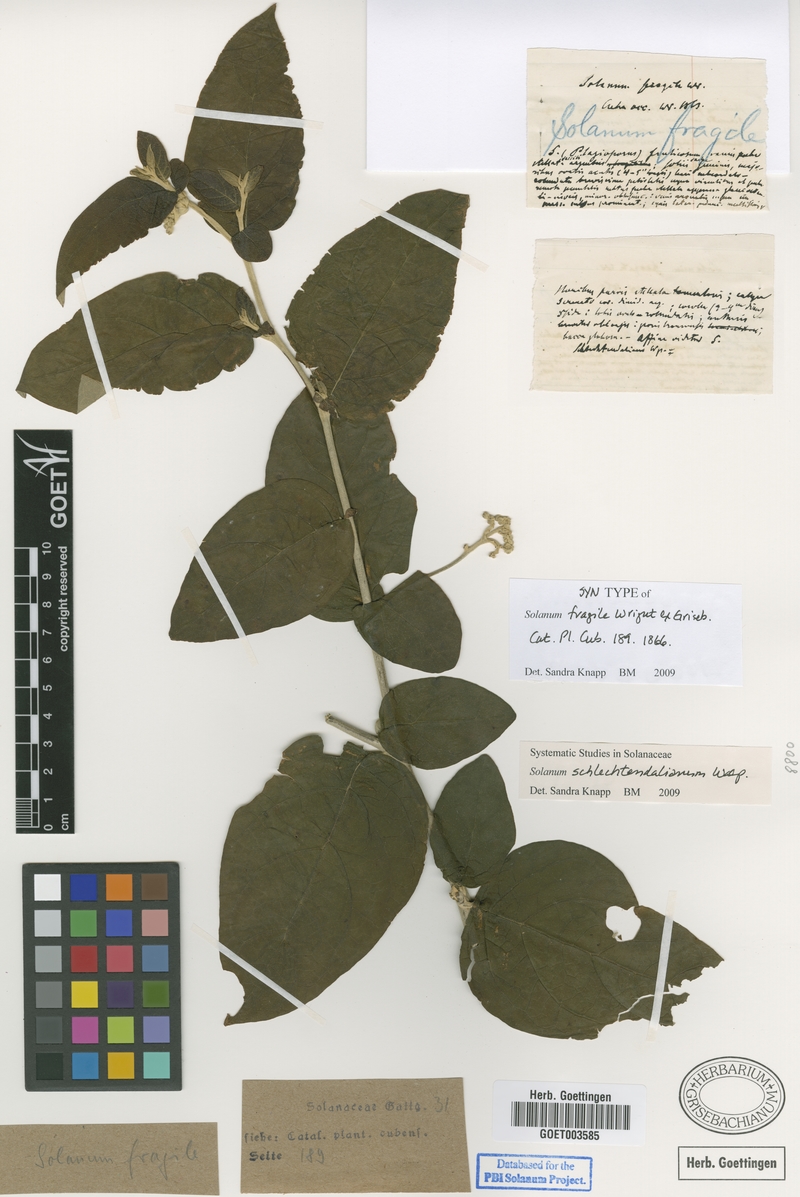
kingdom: Plantae
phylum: Tracheophyta
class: Magnoliopsida
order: Solanales
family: Solanaceae
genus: Solanum
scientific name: Solanum schlechtendalianum
